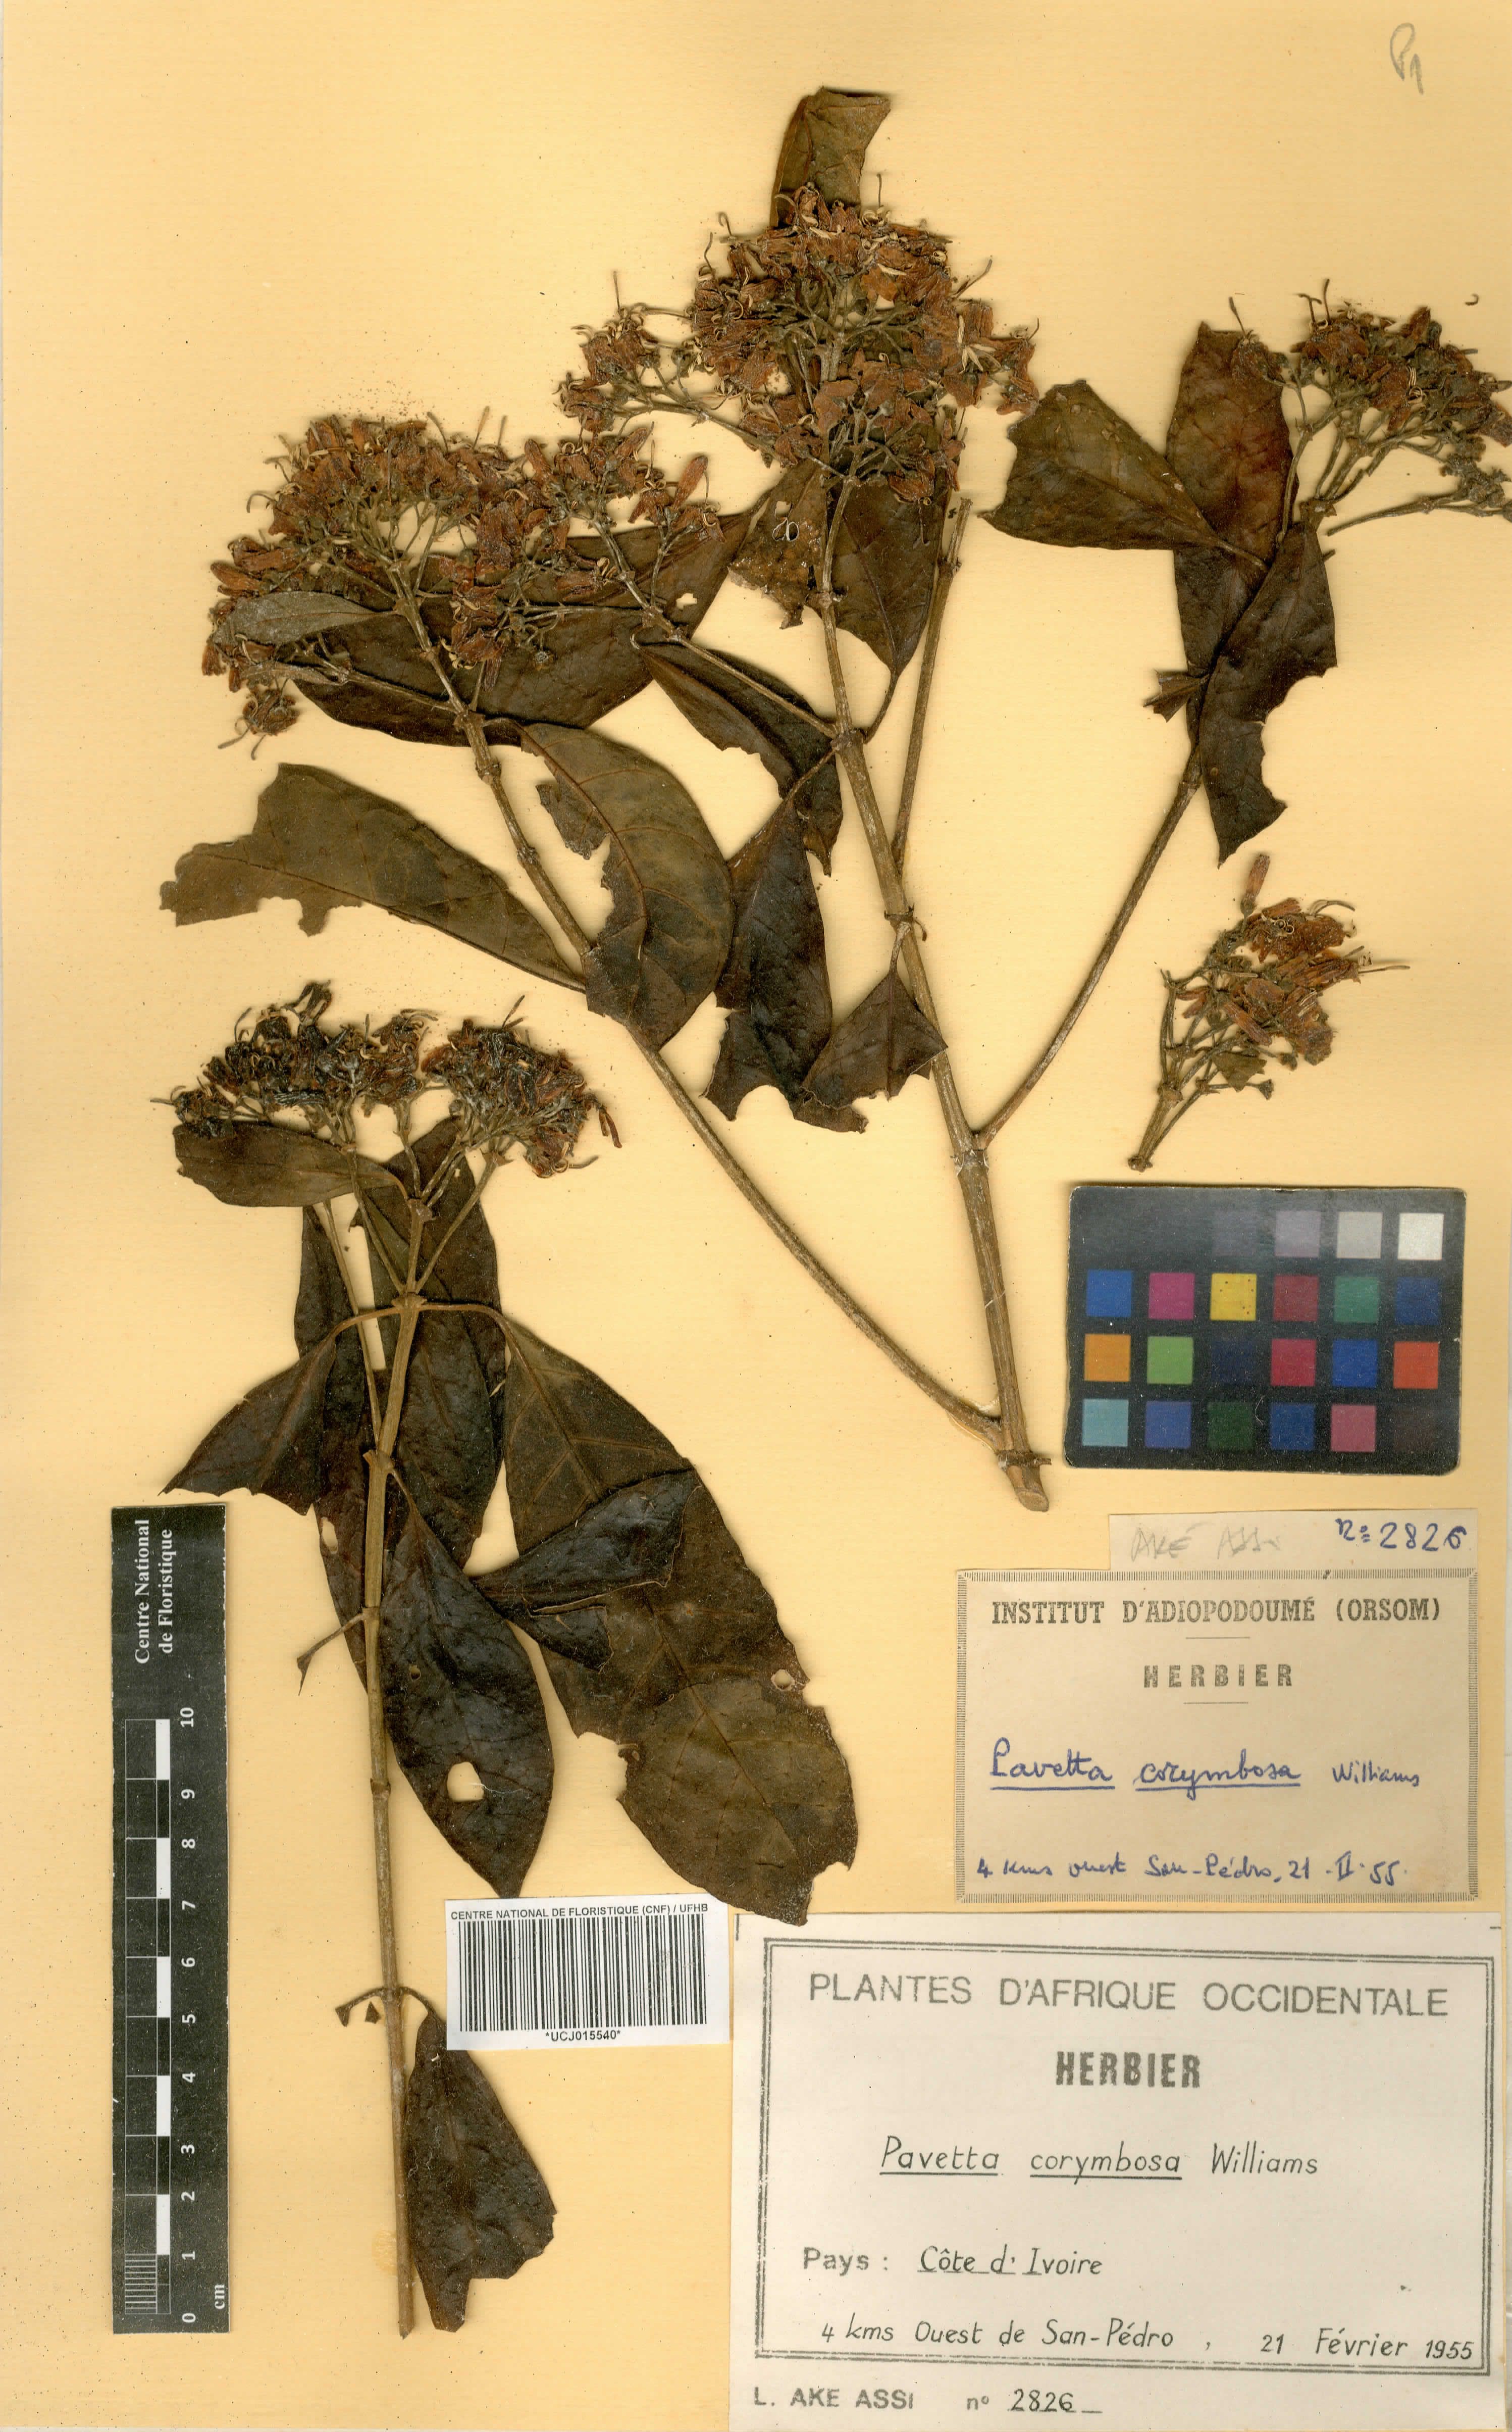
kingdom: Plantae
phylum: Tracheophyta
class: Magnoliopsida
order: Gentianales
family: Rubiaceae
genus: Pavetta
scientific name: Pavetta corymbosa
